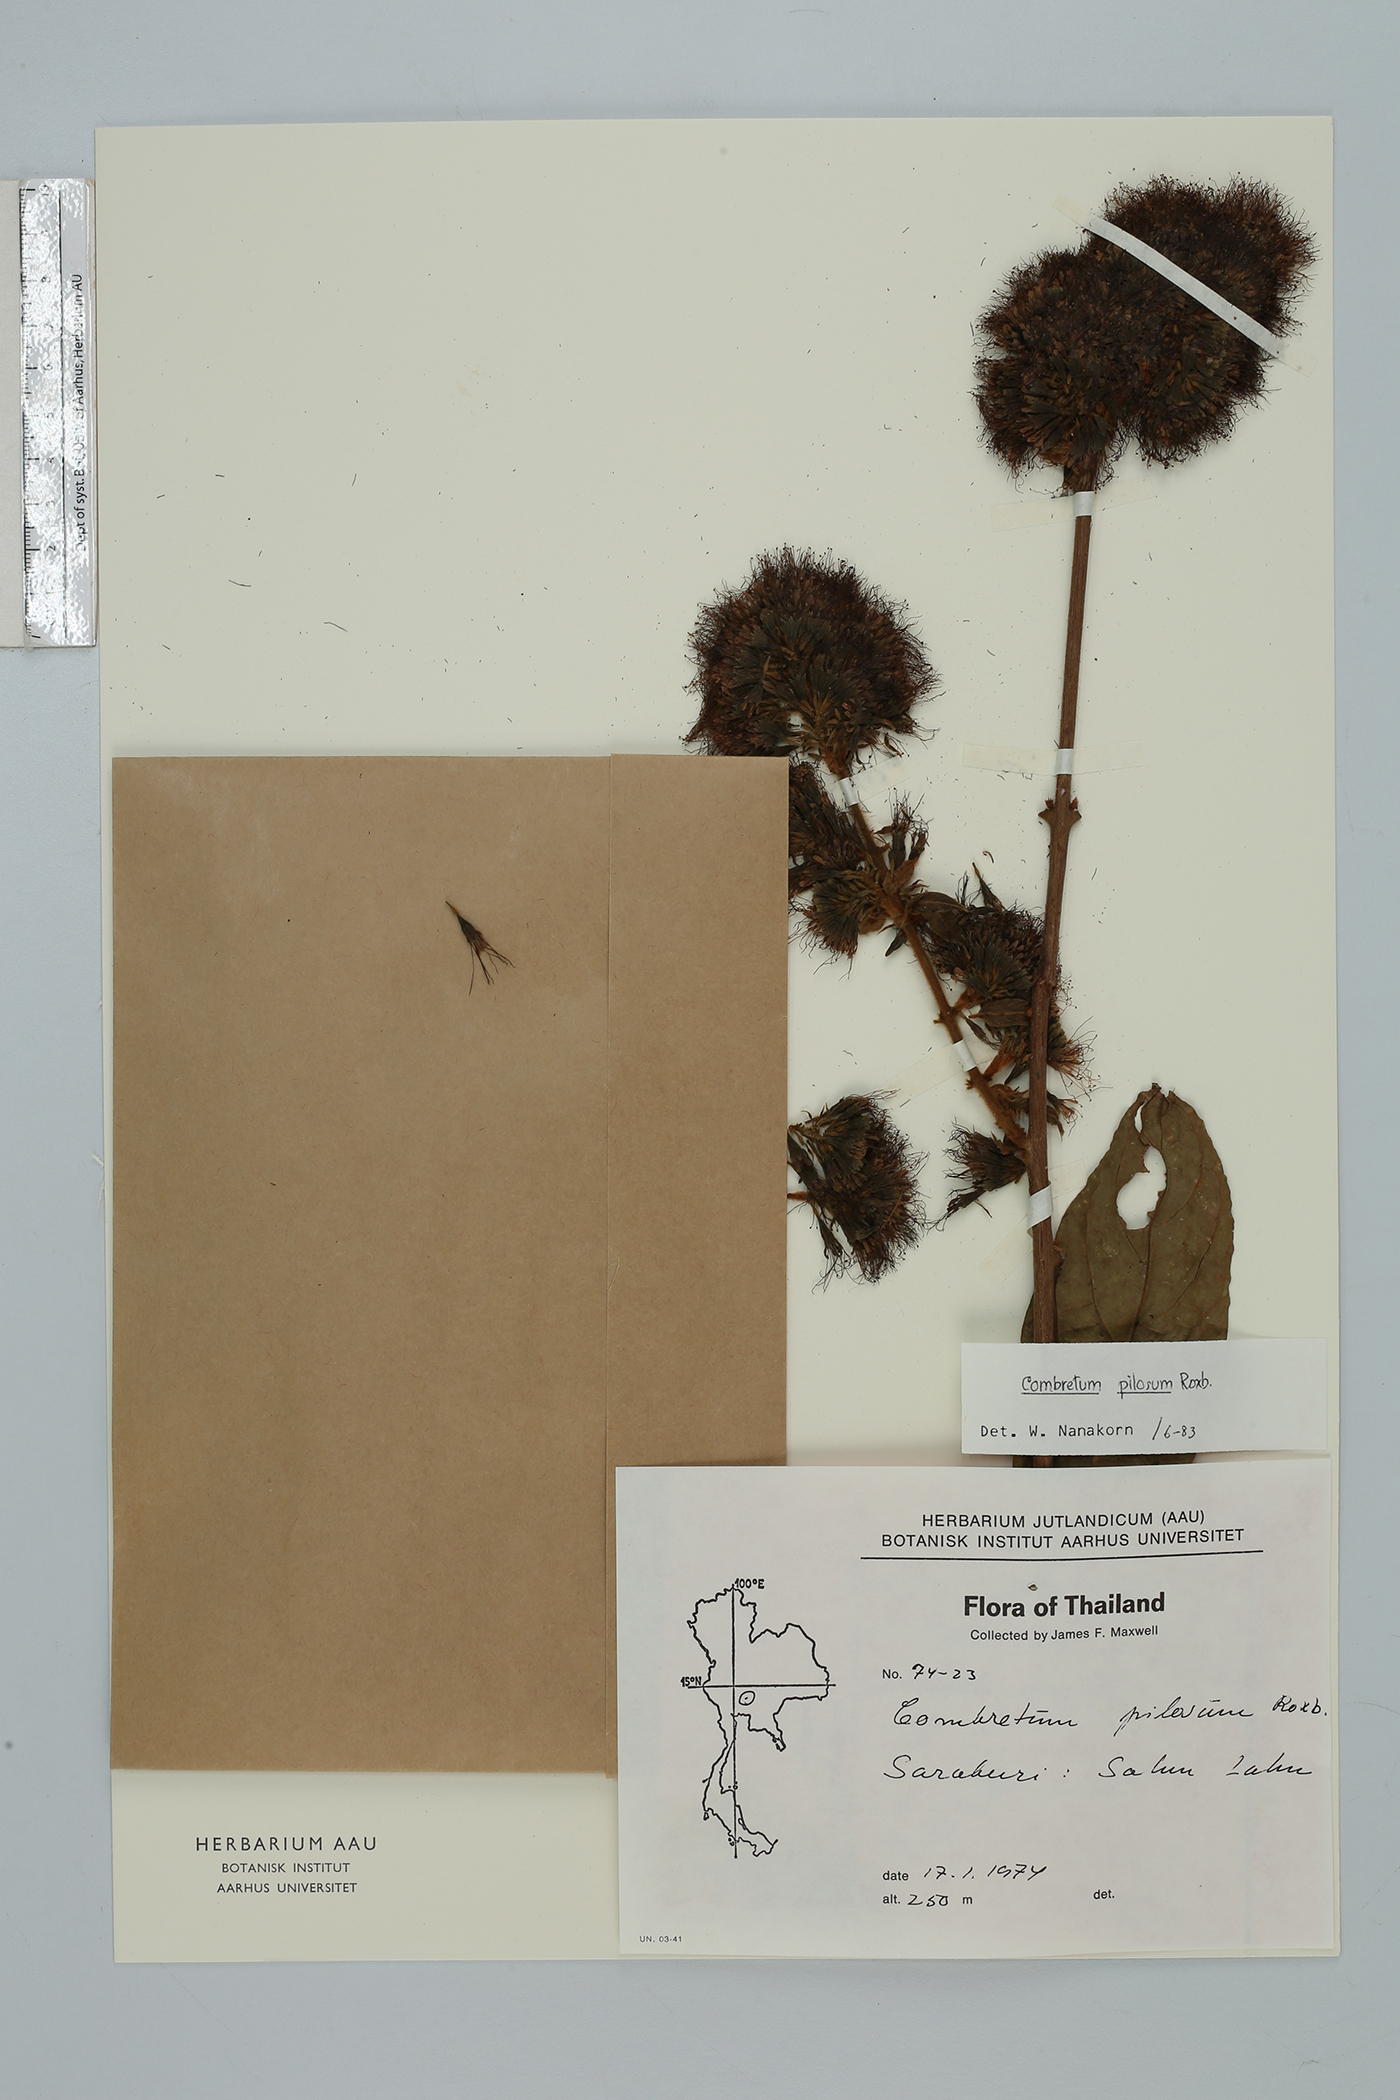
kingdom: Plantae
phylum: Tracheophyta
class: Magnoliopsida
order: Myrtales
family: Combretaceae
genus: Combretum
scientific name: Combretum pilosum
